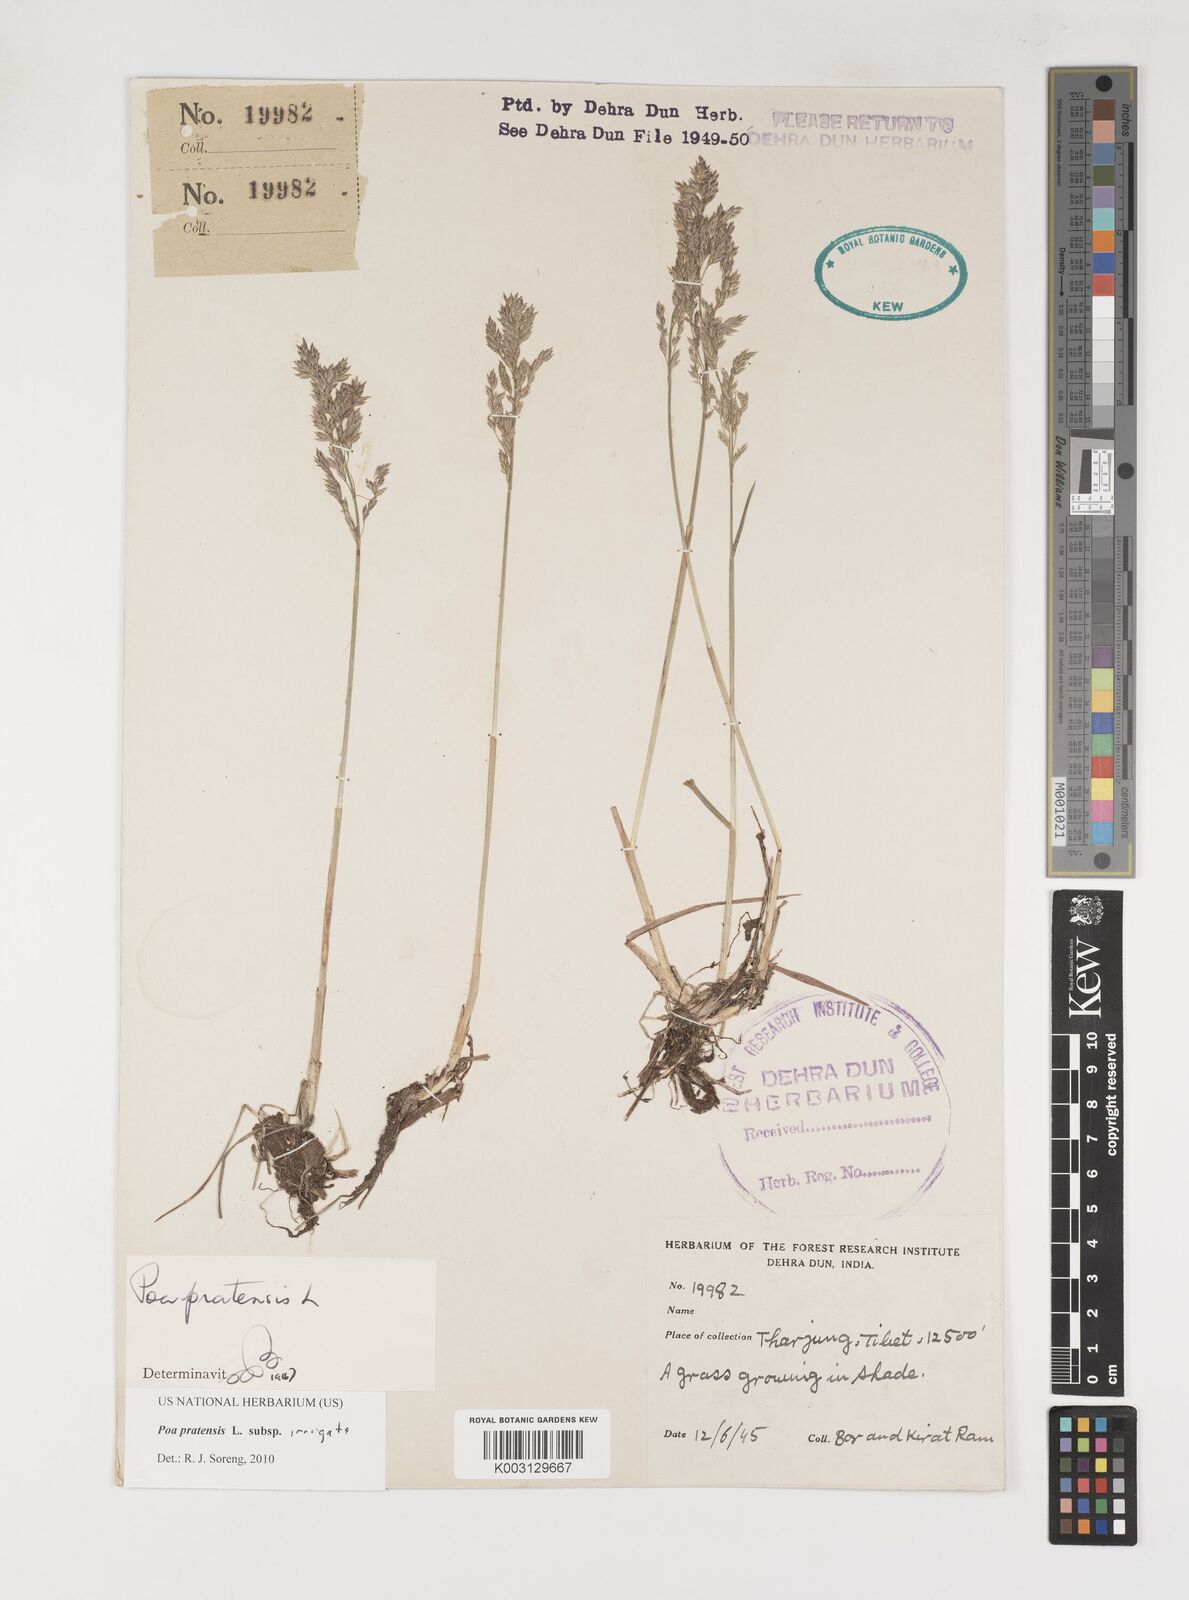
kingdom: Plantae
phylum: Tracheophyta
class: Liliopsida
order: Poales
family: Poaceae
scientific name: Poaceae
